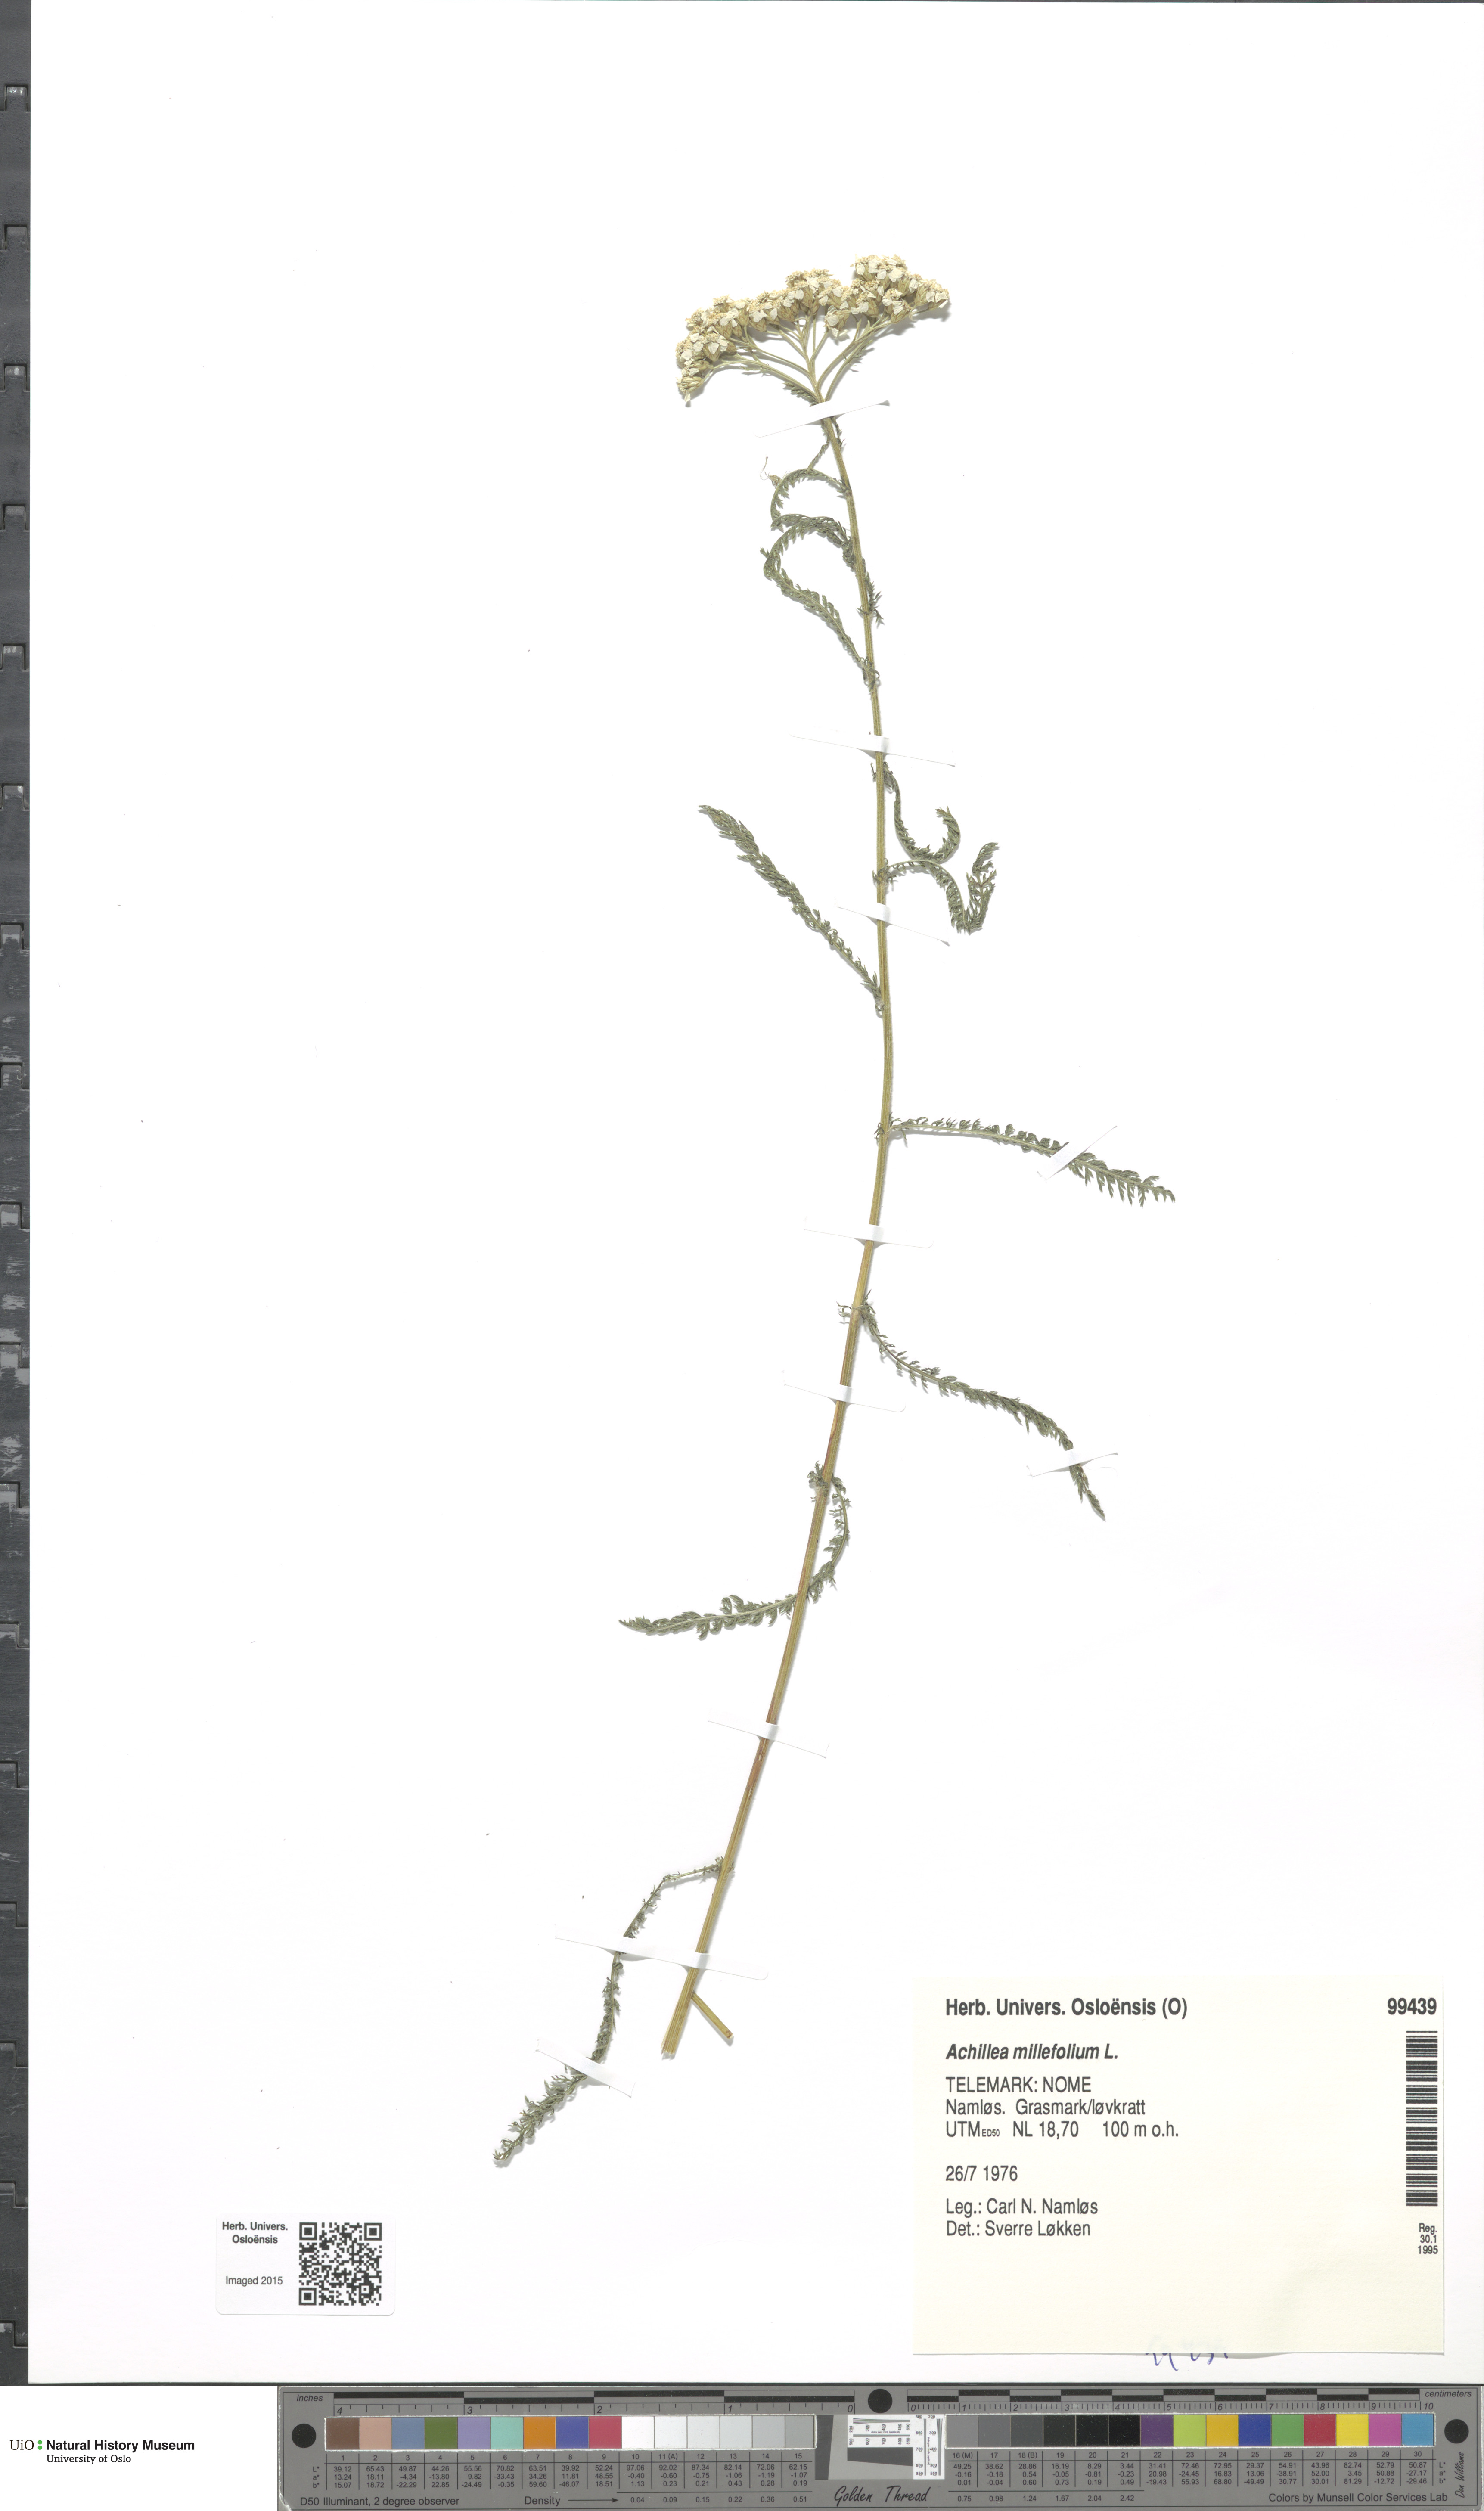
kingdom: Plantae
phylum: Tracheophyta
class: Magnoliopsida
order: Asterales
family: Asteraceae
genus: Achillea
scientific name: Achillea millefolium
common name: Yarrow
